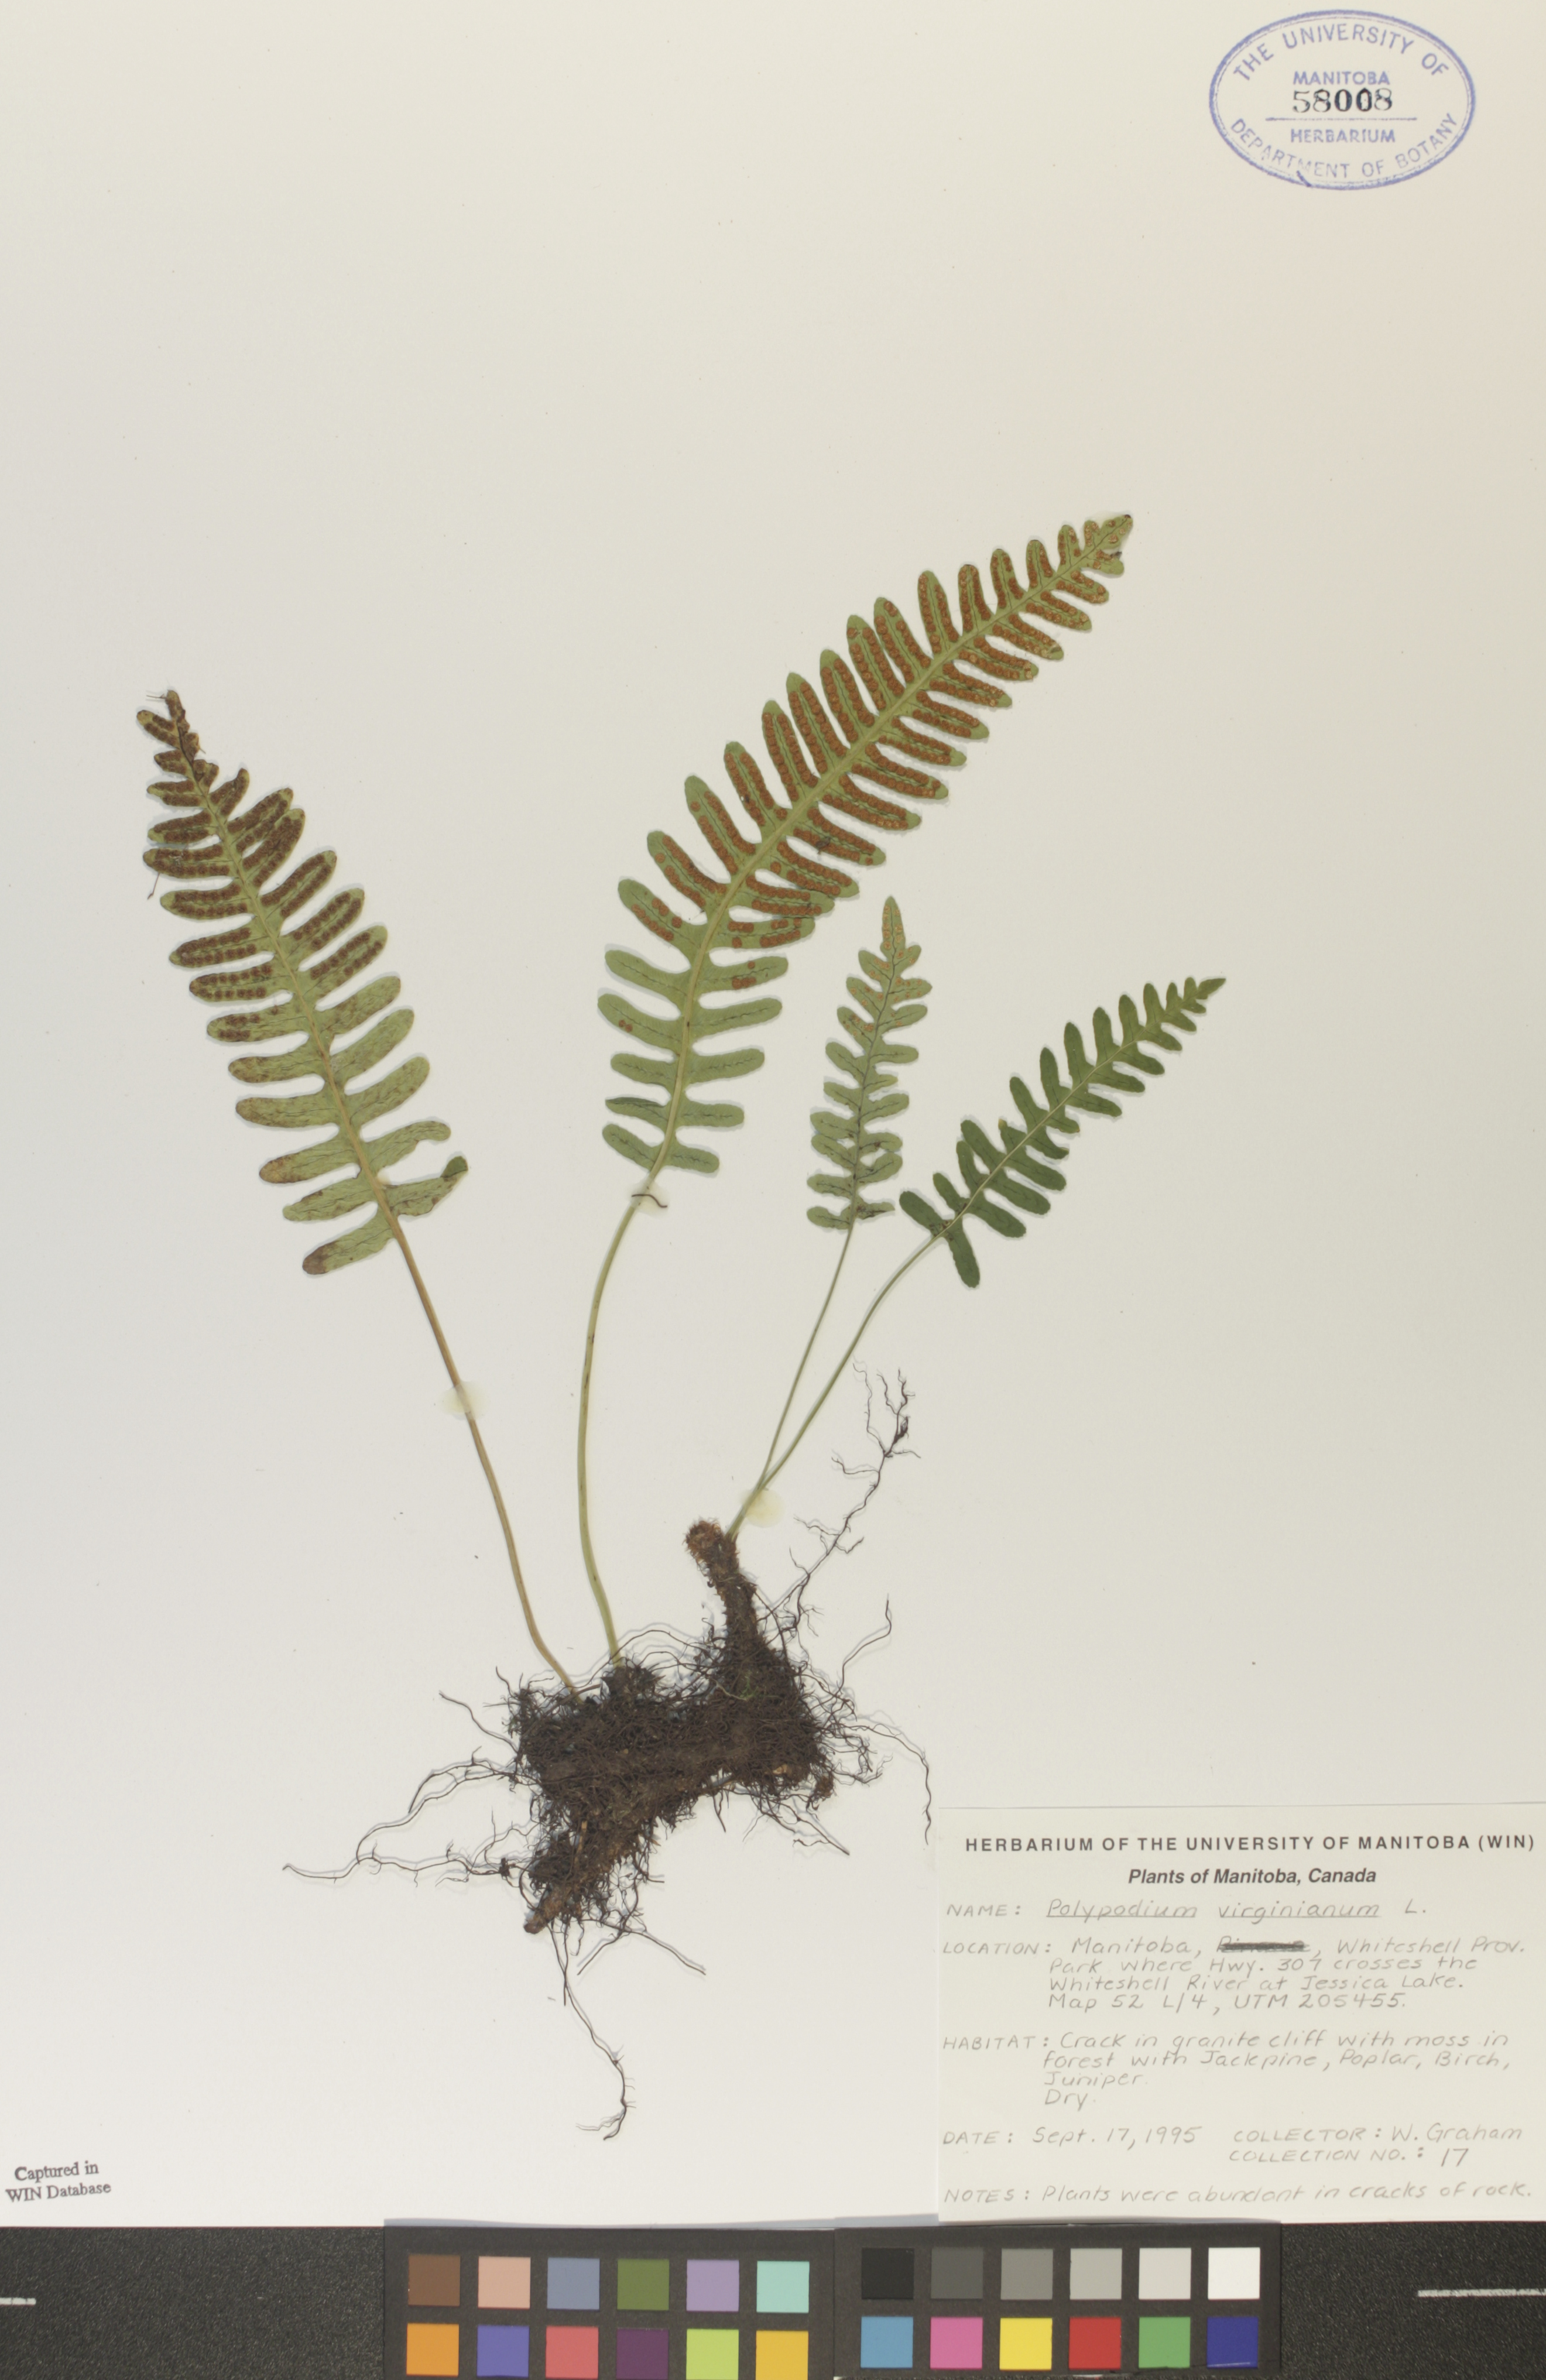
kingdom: Plantae
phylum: Tracheophyta
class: Polypodiopsida
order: Polypodiales
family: Polypodiaceae
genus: Polypodium
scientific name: Polypodium virginianum
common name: American wall fern
